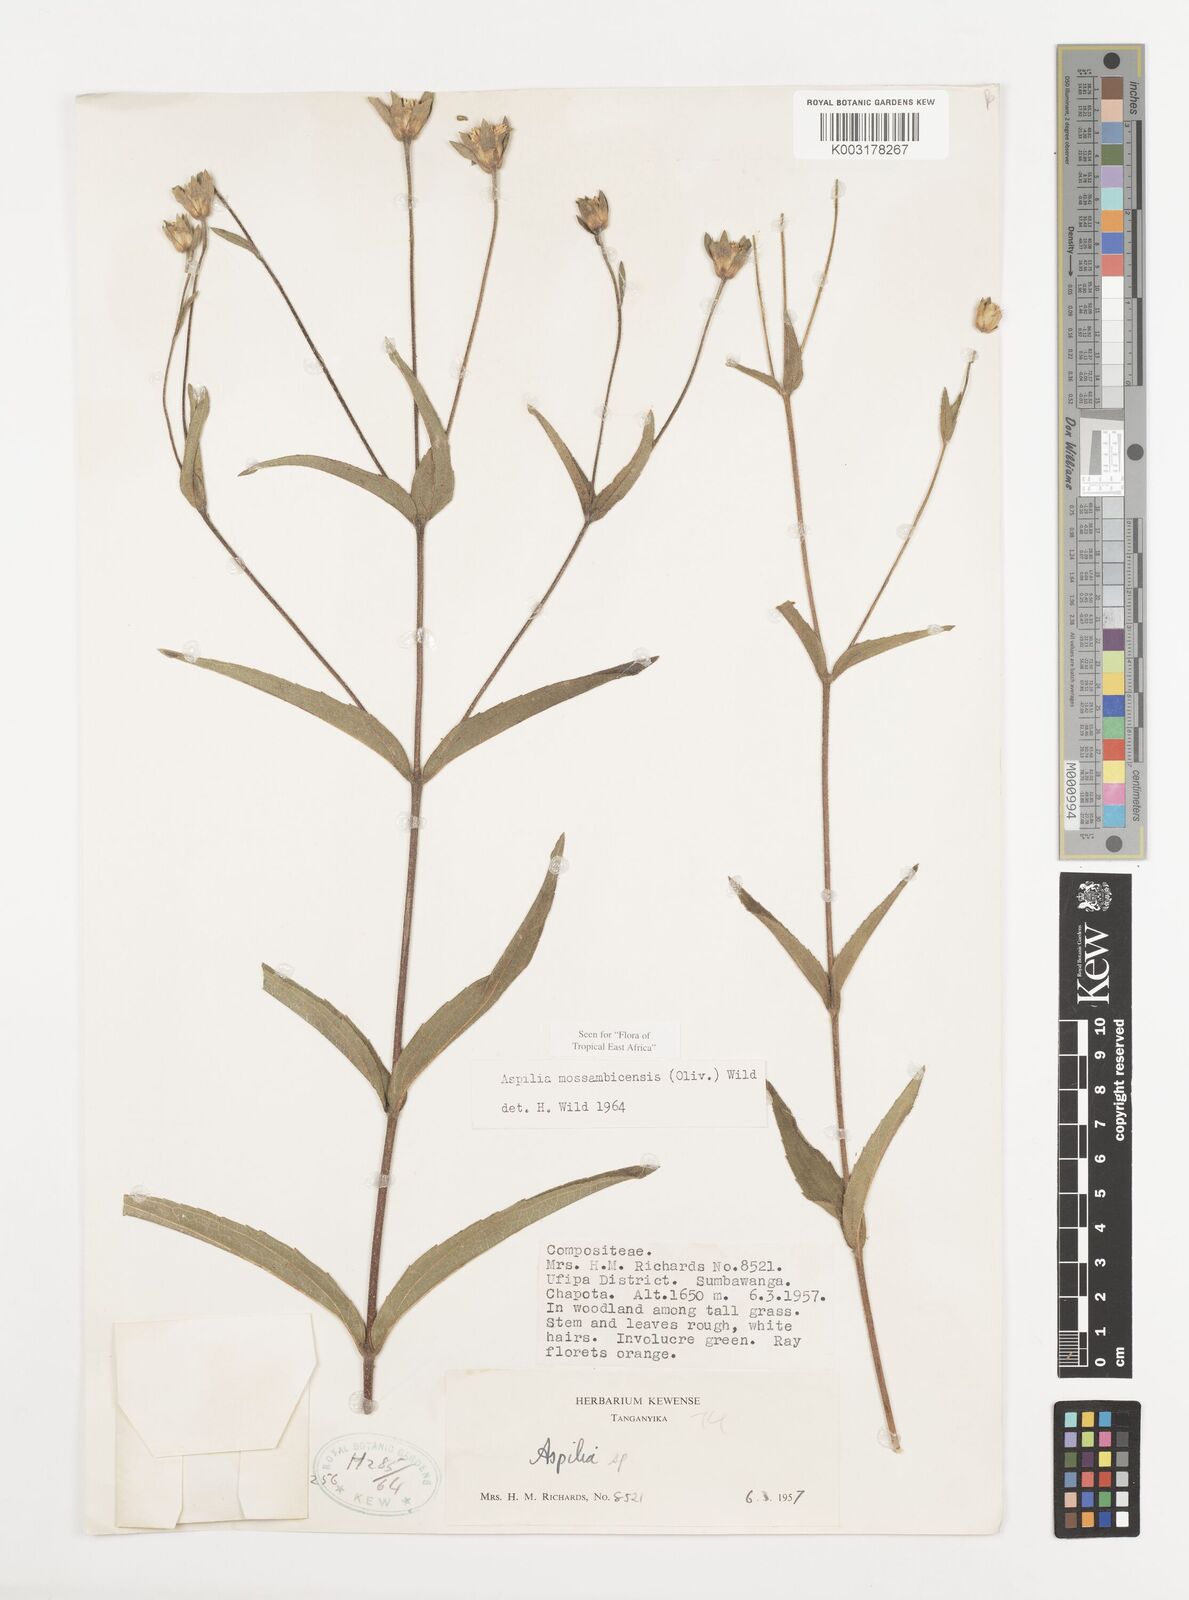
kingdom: Plantae
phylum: Tracheophyta
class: Magnoliopsida
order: Asterales
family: Asteraceae
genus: Aspilia
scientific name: Aspilia mossambicensis
